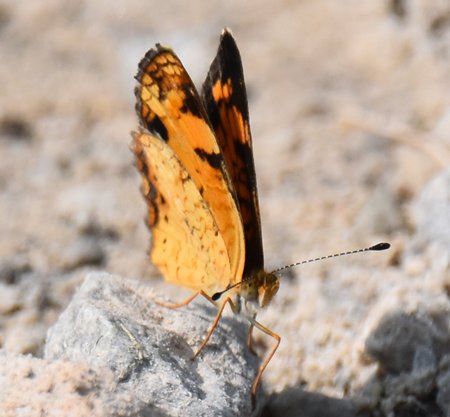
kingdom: Animalia
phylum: Arthropoda
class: Insecta
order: Lepidoptera
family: Nymphalidae
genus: Phyciodes
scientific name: Phyciodes tharos
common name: Pearl Crescent
